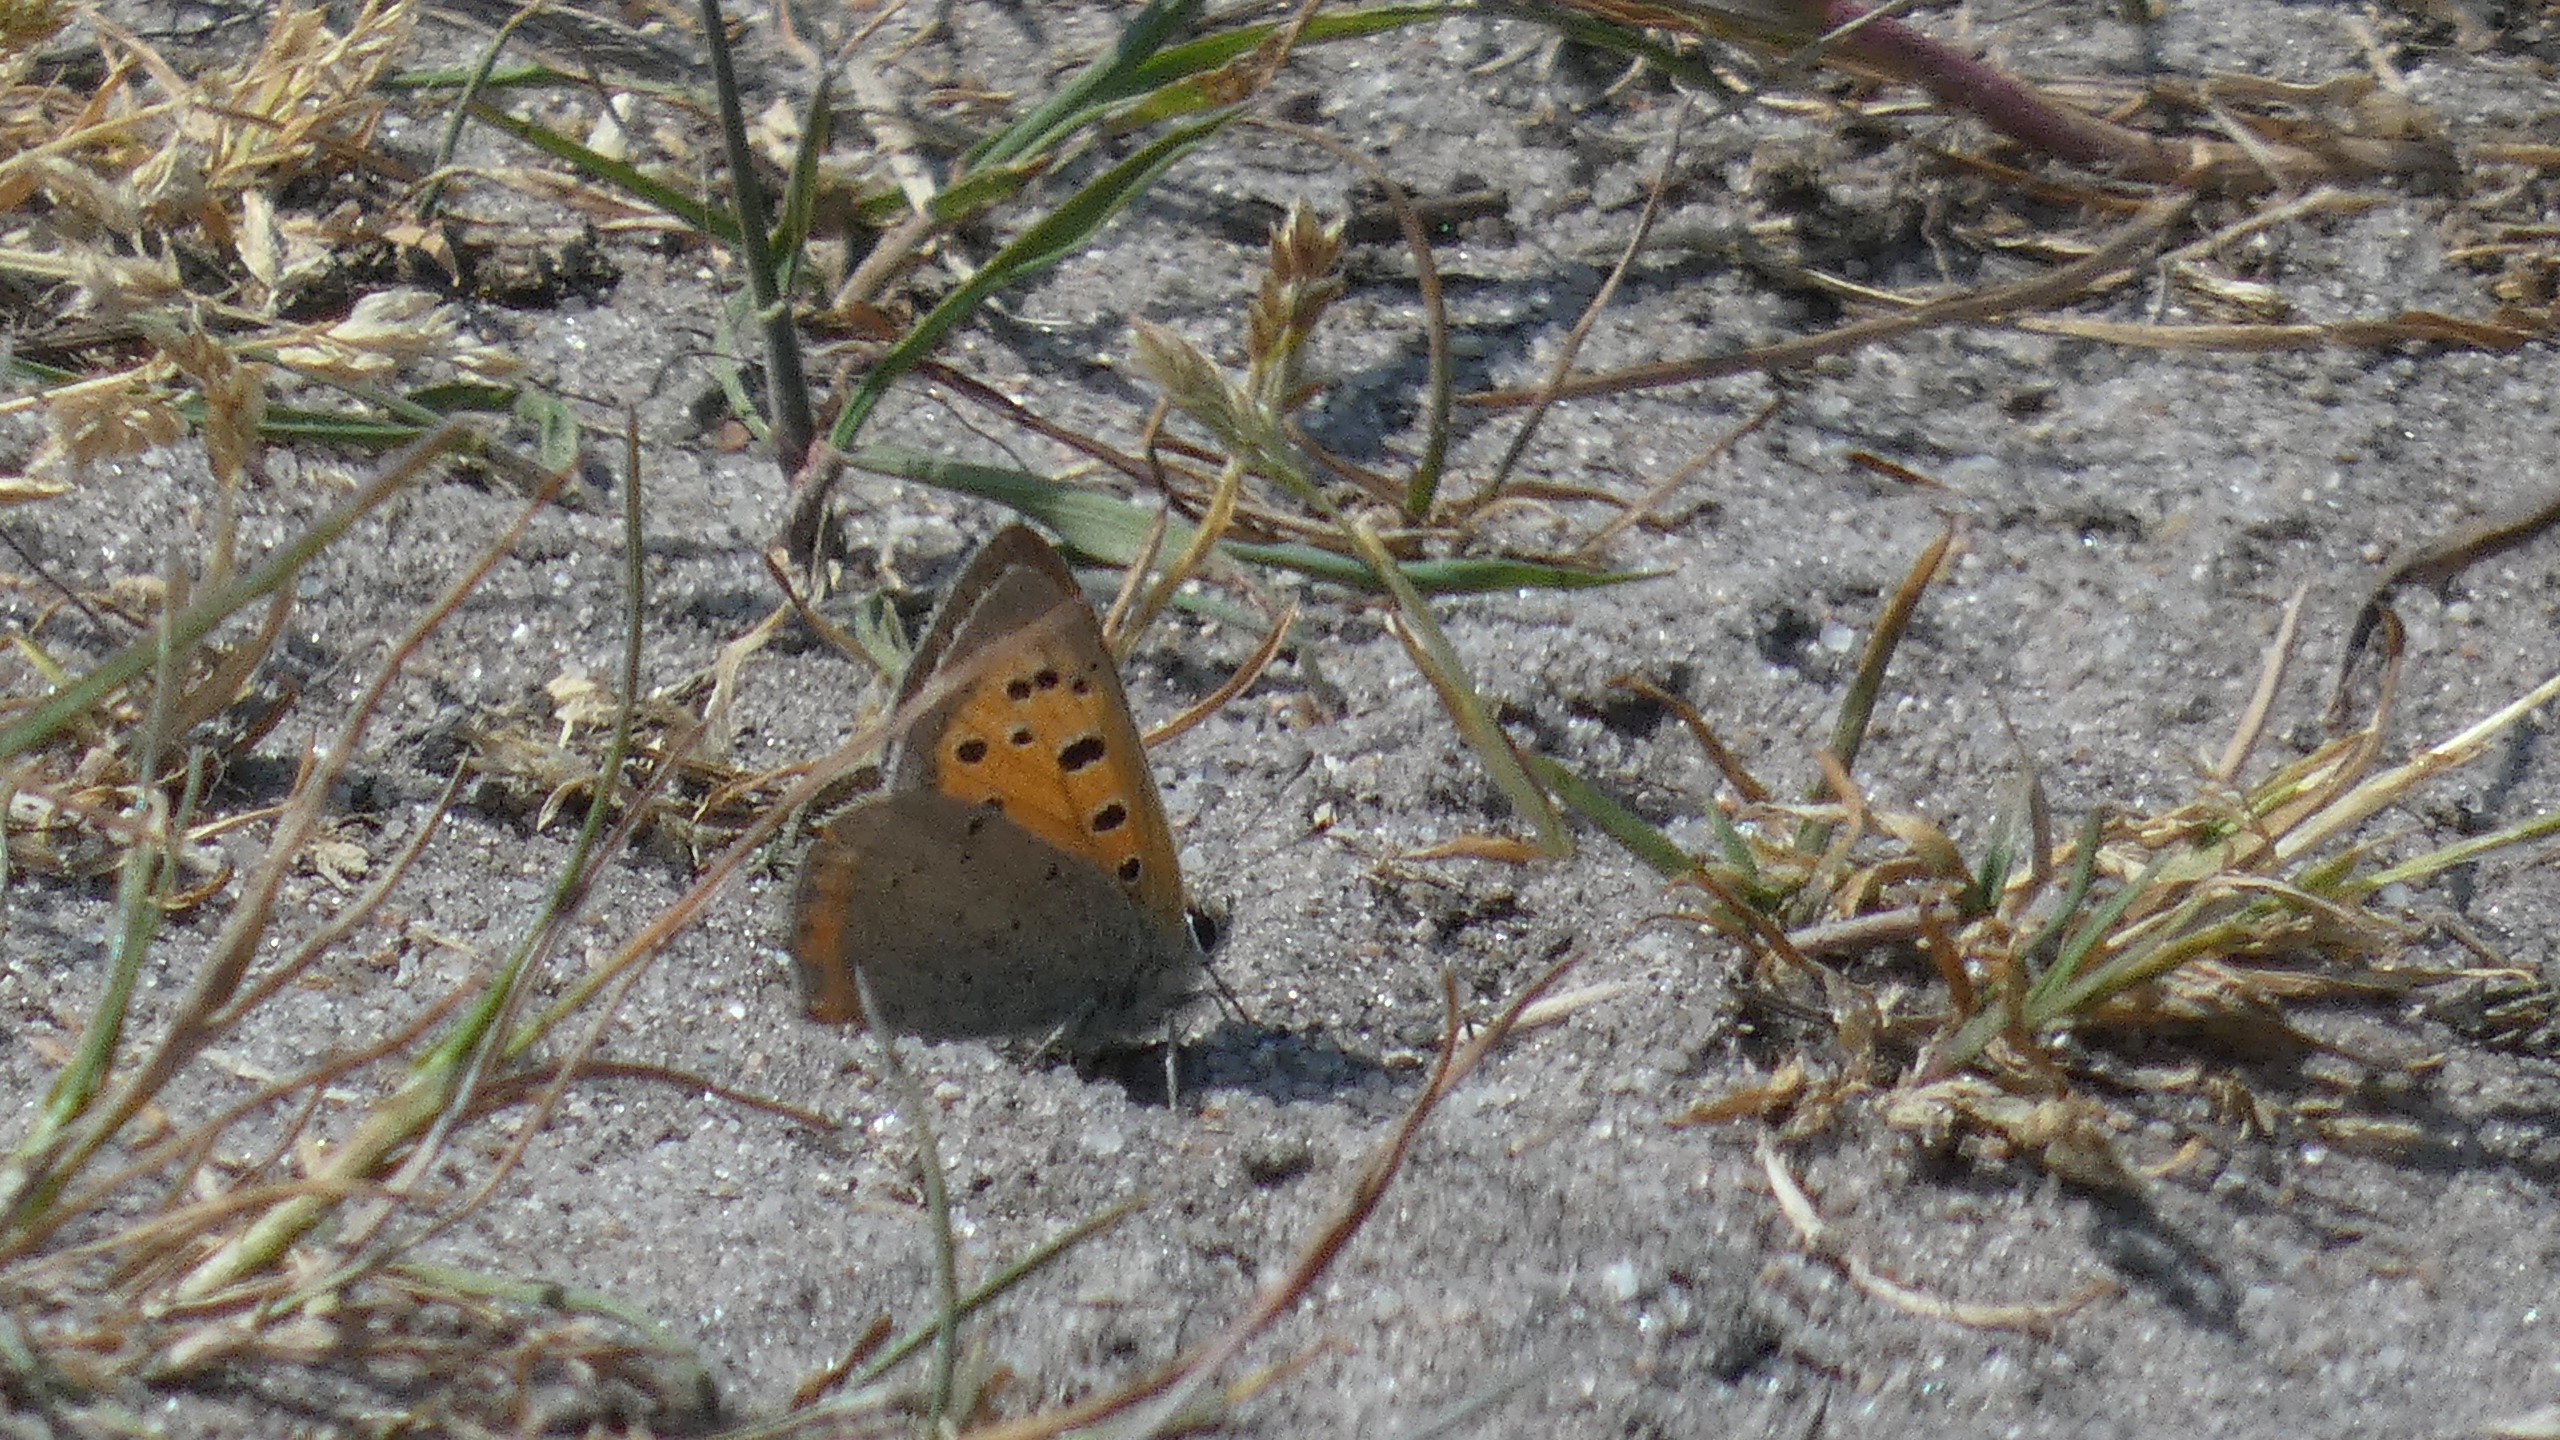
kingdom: Animalia
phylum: Arthropoda
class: Insecta
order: Lepidoptera
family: Lycaenidae
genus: Lycaena
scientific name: Lycaena phlaeas
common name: Lille ildfugl
